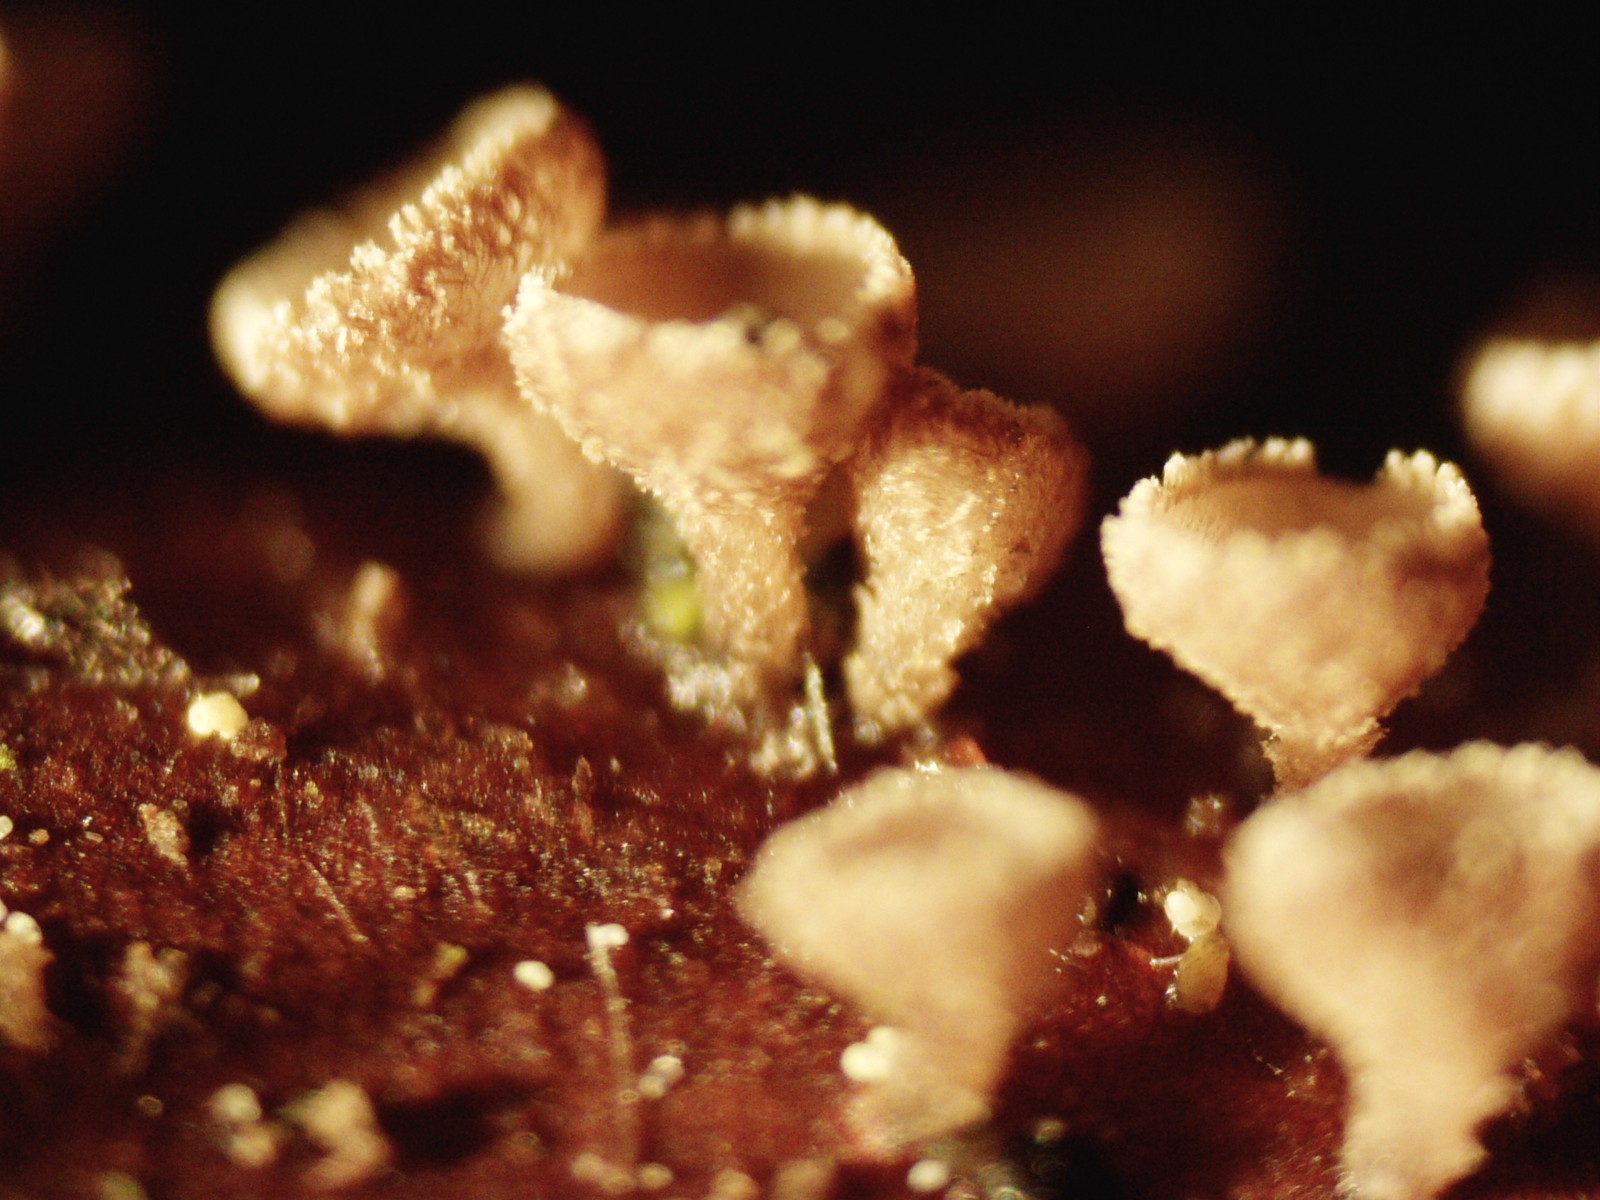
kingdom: Fungi
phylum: Ascomycota
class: Leotiomycetes
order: Helotiales
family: Lachnaceae
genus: Brunnipila
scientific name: Brunnipila clandestina
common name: hindbær-frynseskive
